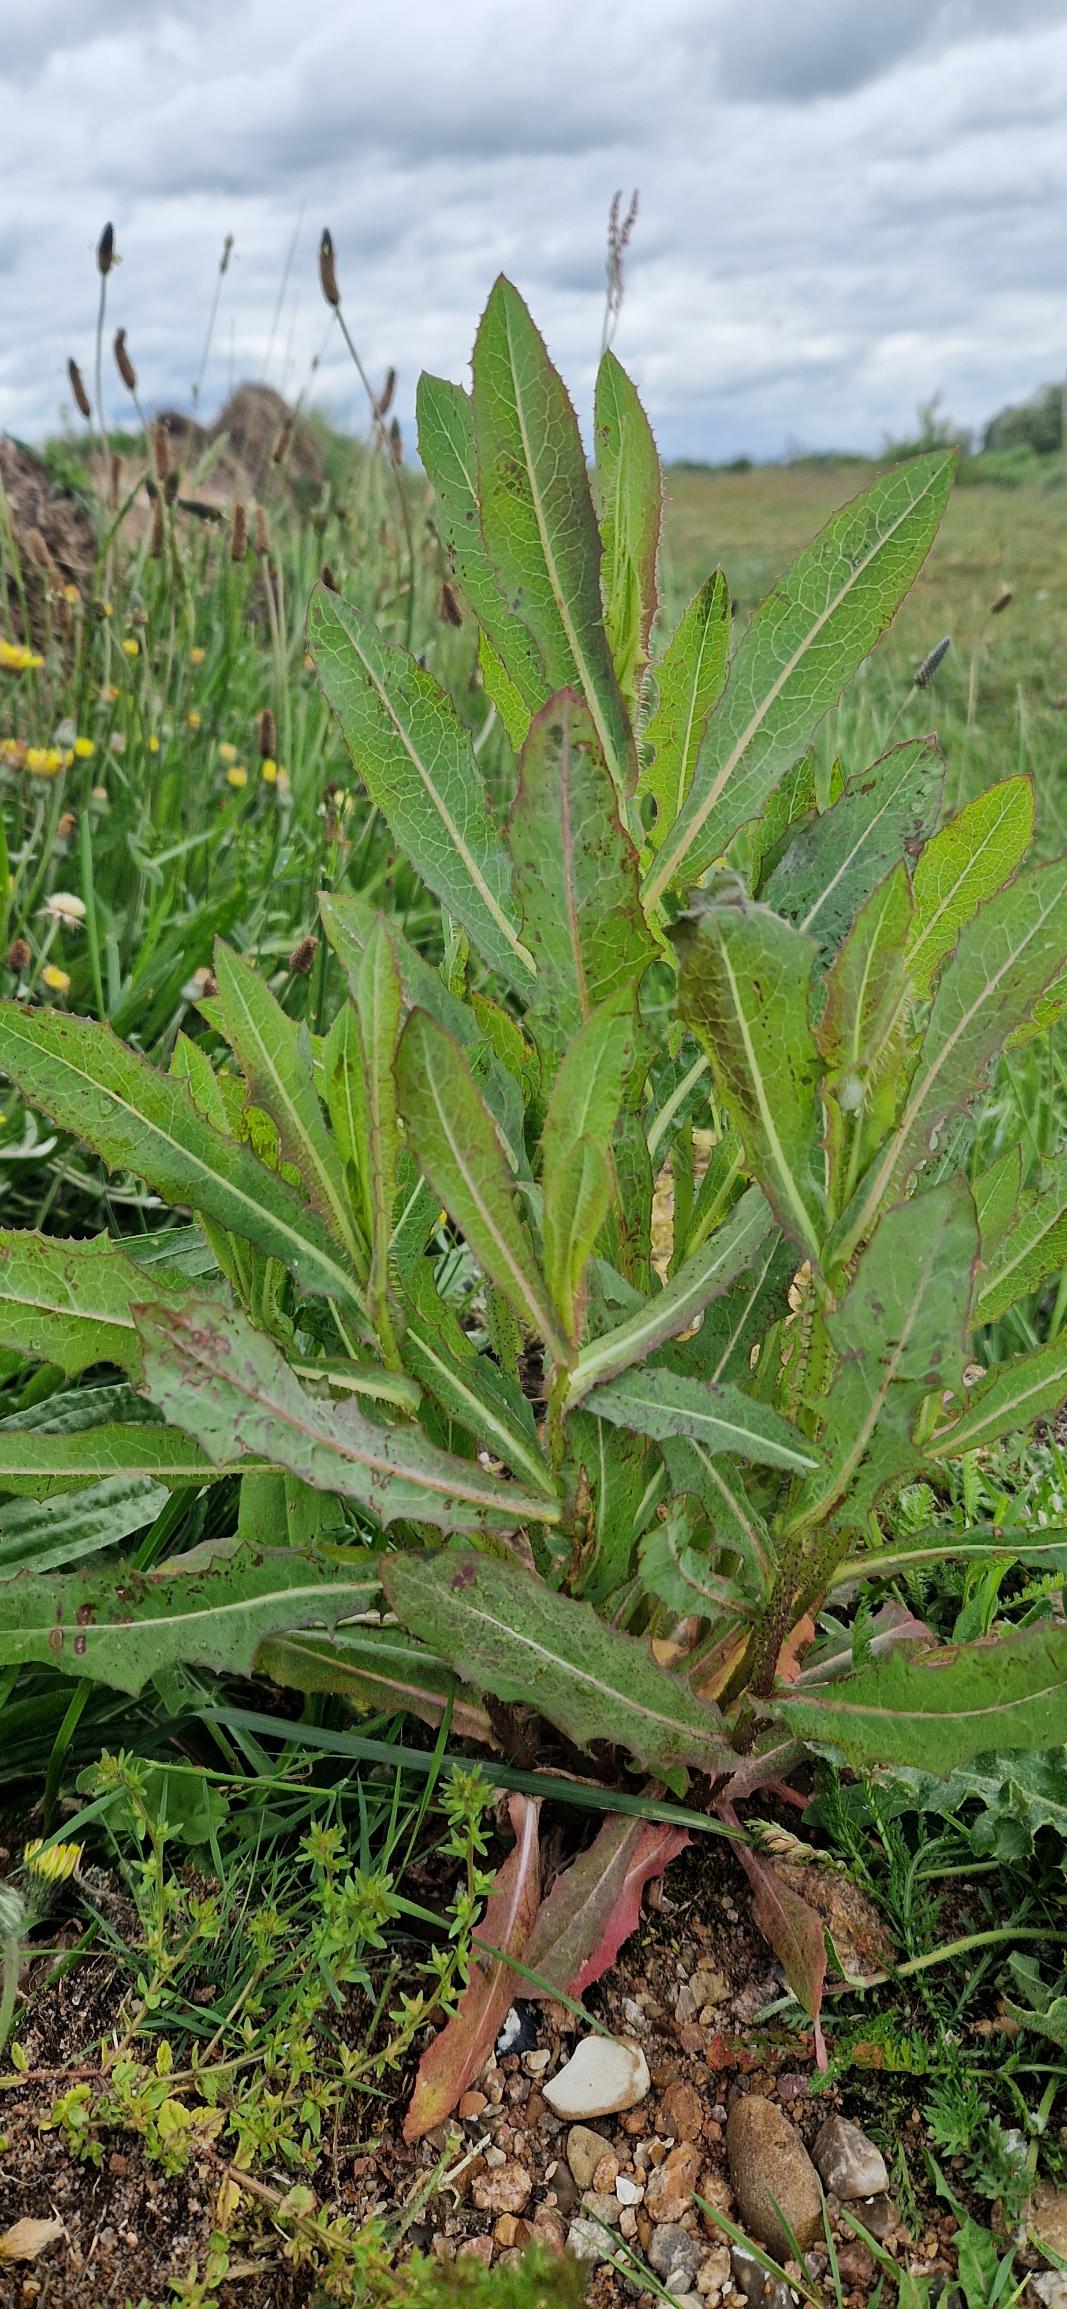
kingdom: Plantae
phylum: Tracheophyta
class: Magnoliopsida
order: Asterales
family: Asteraceae
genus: Lactuca
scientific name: Lactuca serriola
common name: Tornet salat
